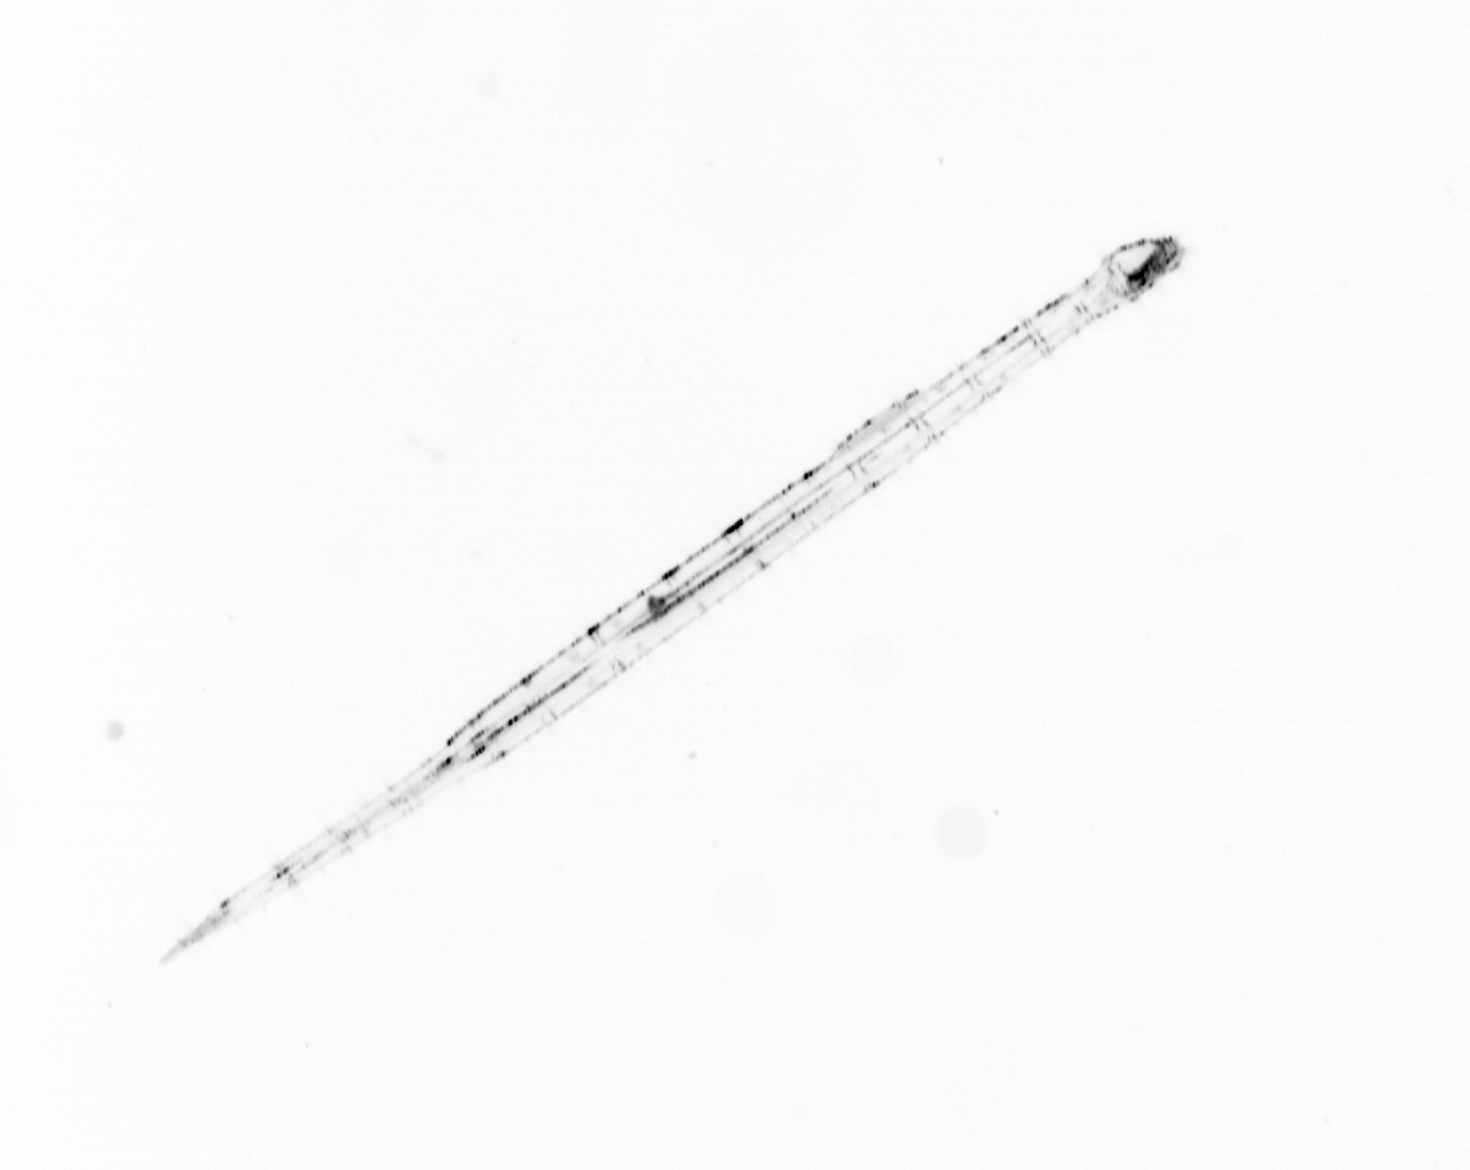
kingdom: Chromista
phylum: Ochrophyta
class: Bacillariophyceae
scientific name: Bacillariophyceae
